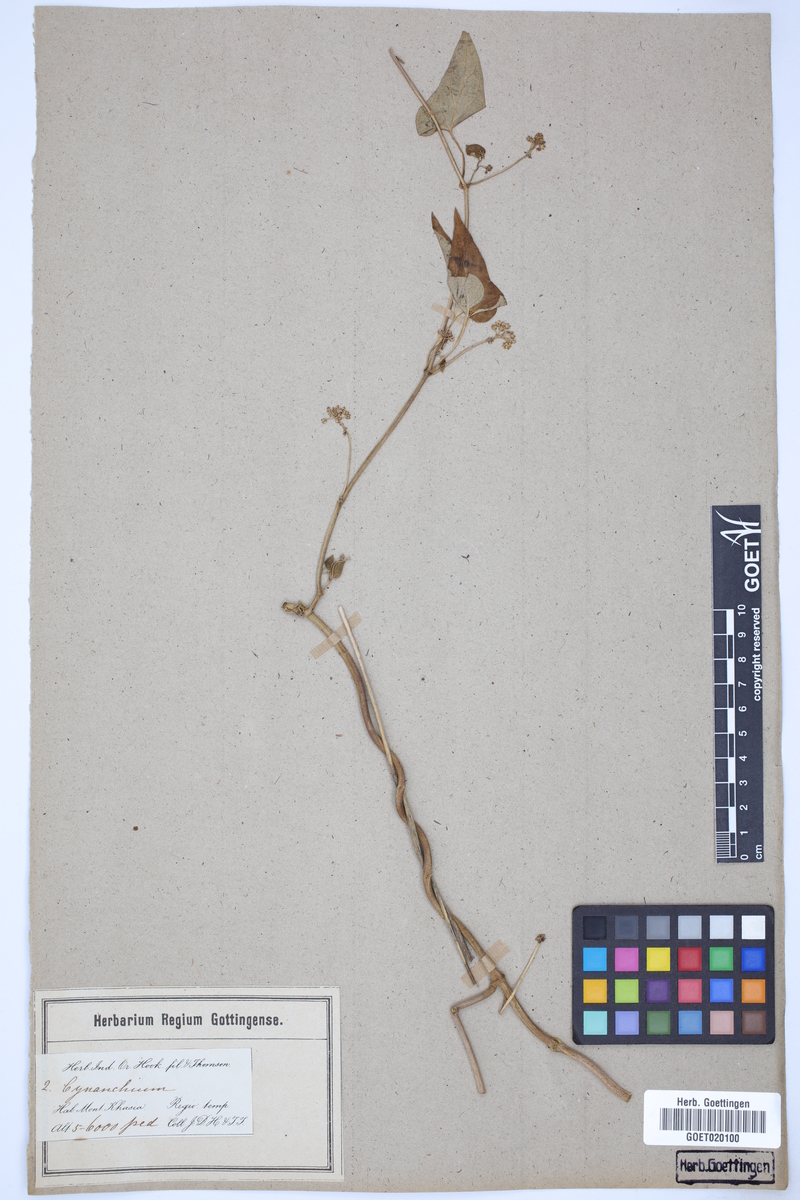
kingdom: Plantae
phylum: Tracheophyta
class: Magnoliopsida
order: Gentianales
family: Apocynaceae
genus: Vincetoxicum
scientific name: Vincetoxicum otophyllum
